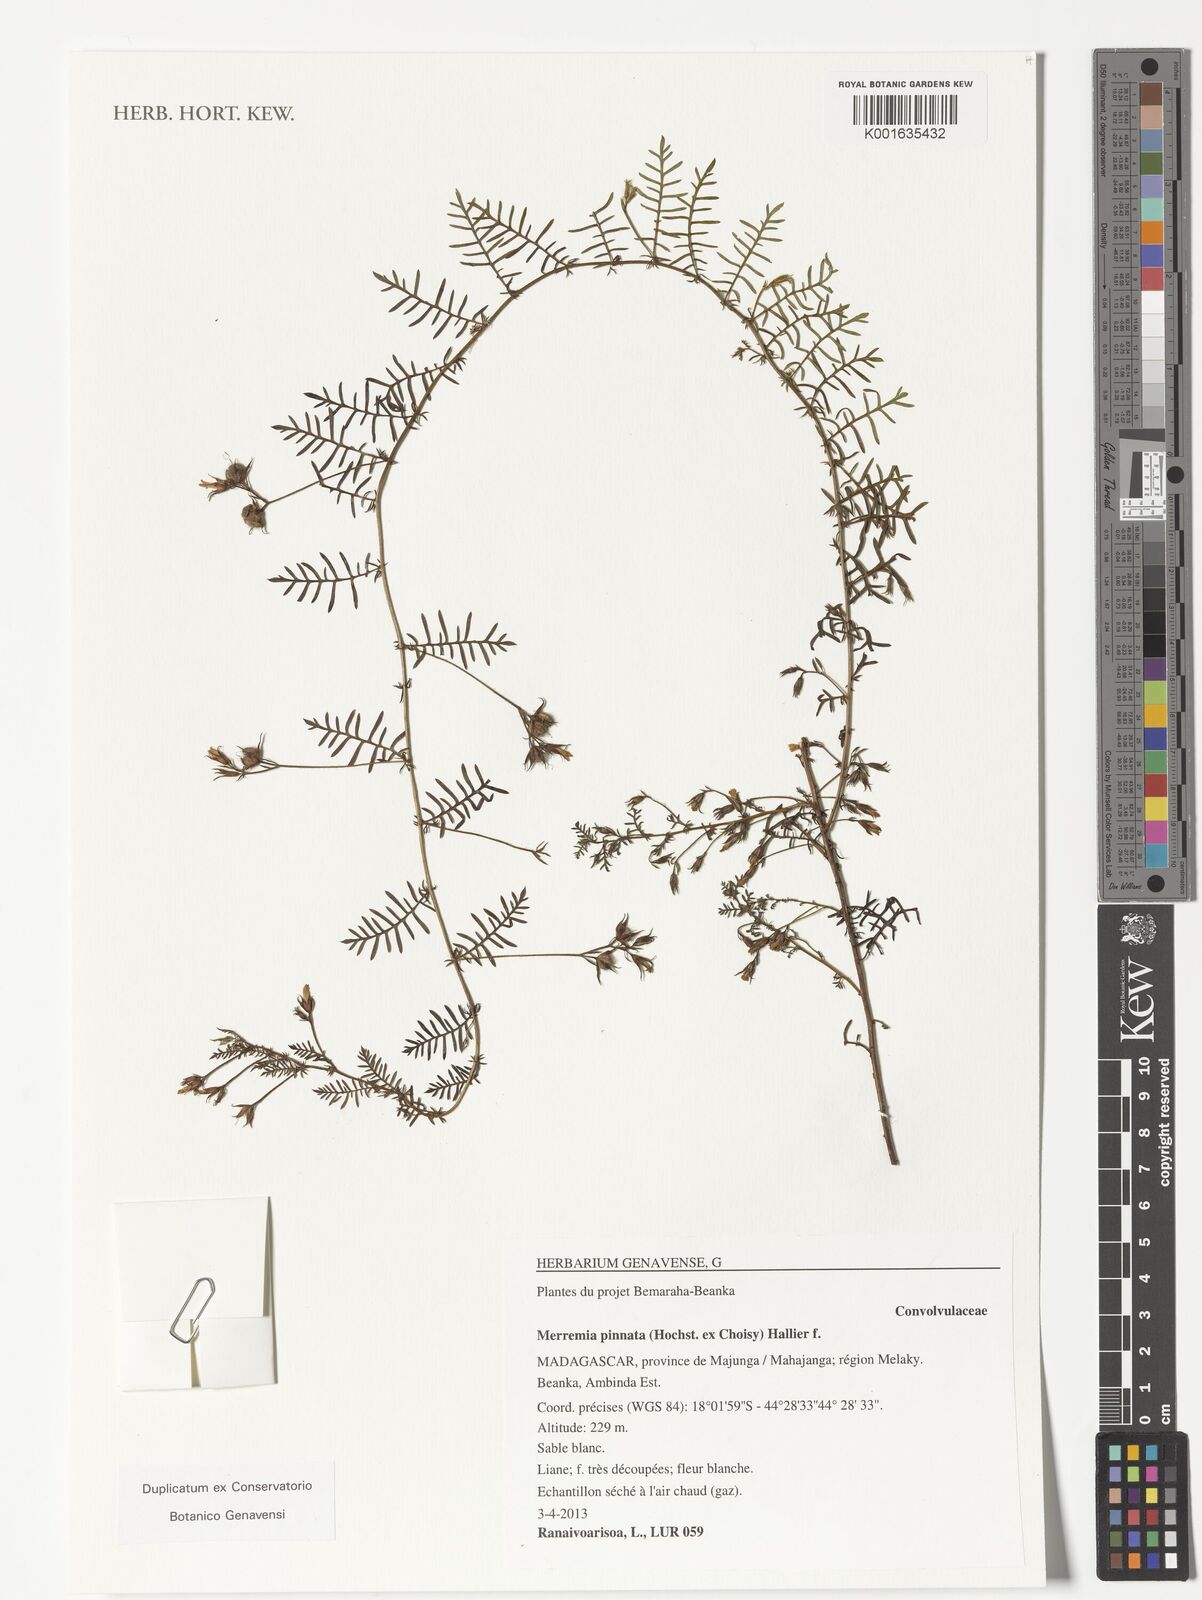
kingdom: Plantae
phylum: Tracheophyta
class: Magnoliopsida
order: Solanales
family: Convolvulaceae
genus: Xenostegia
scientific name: Xenostegia pinnata
